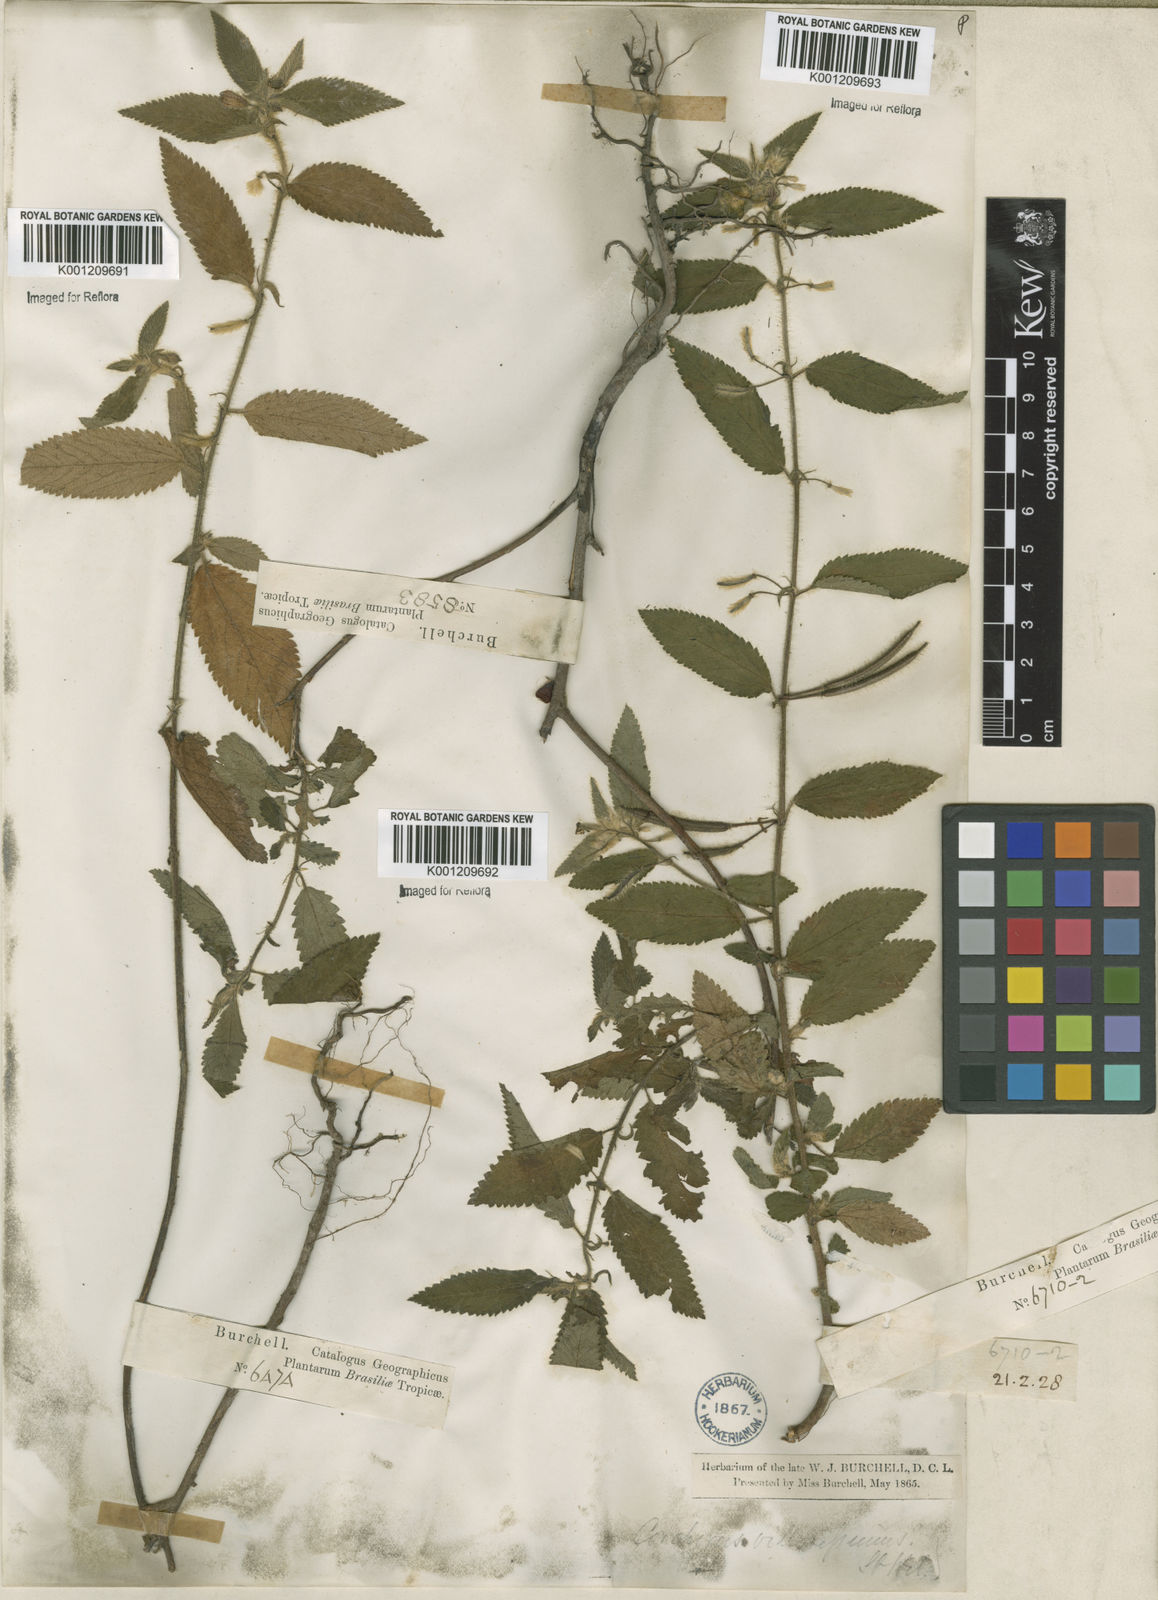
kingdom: Plantae
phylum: Tracheophyta
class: Magnoliopsida
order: Malvales
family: Malvaceae
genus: Corchorus
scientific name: Corchorus hirtus
